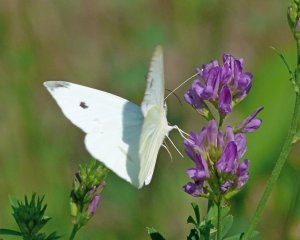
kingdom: Animalia
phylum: Arthropoda
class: Insecta
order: Lepidoptera
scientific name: Lepidoptera
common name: Butterflies
